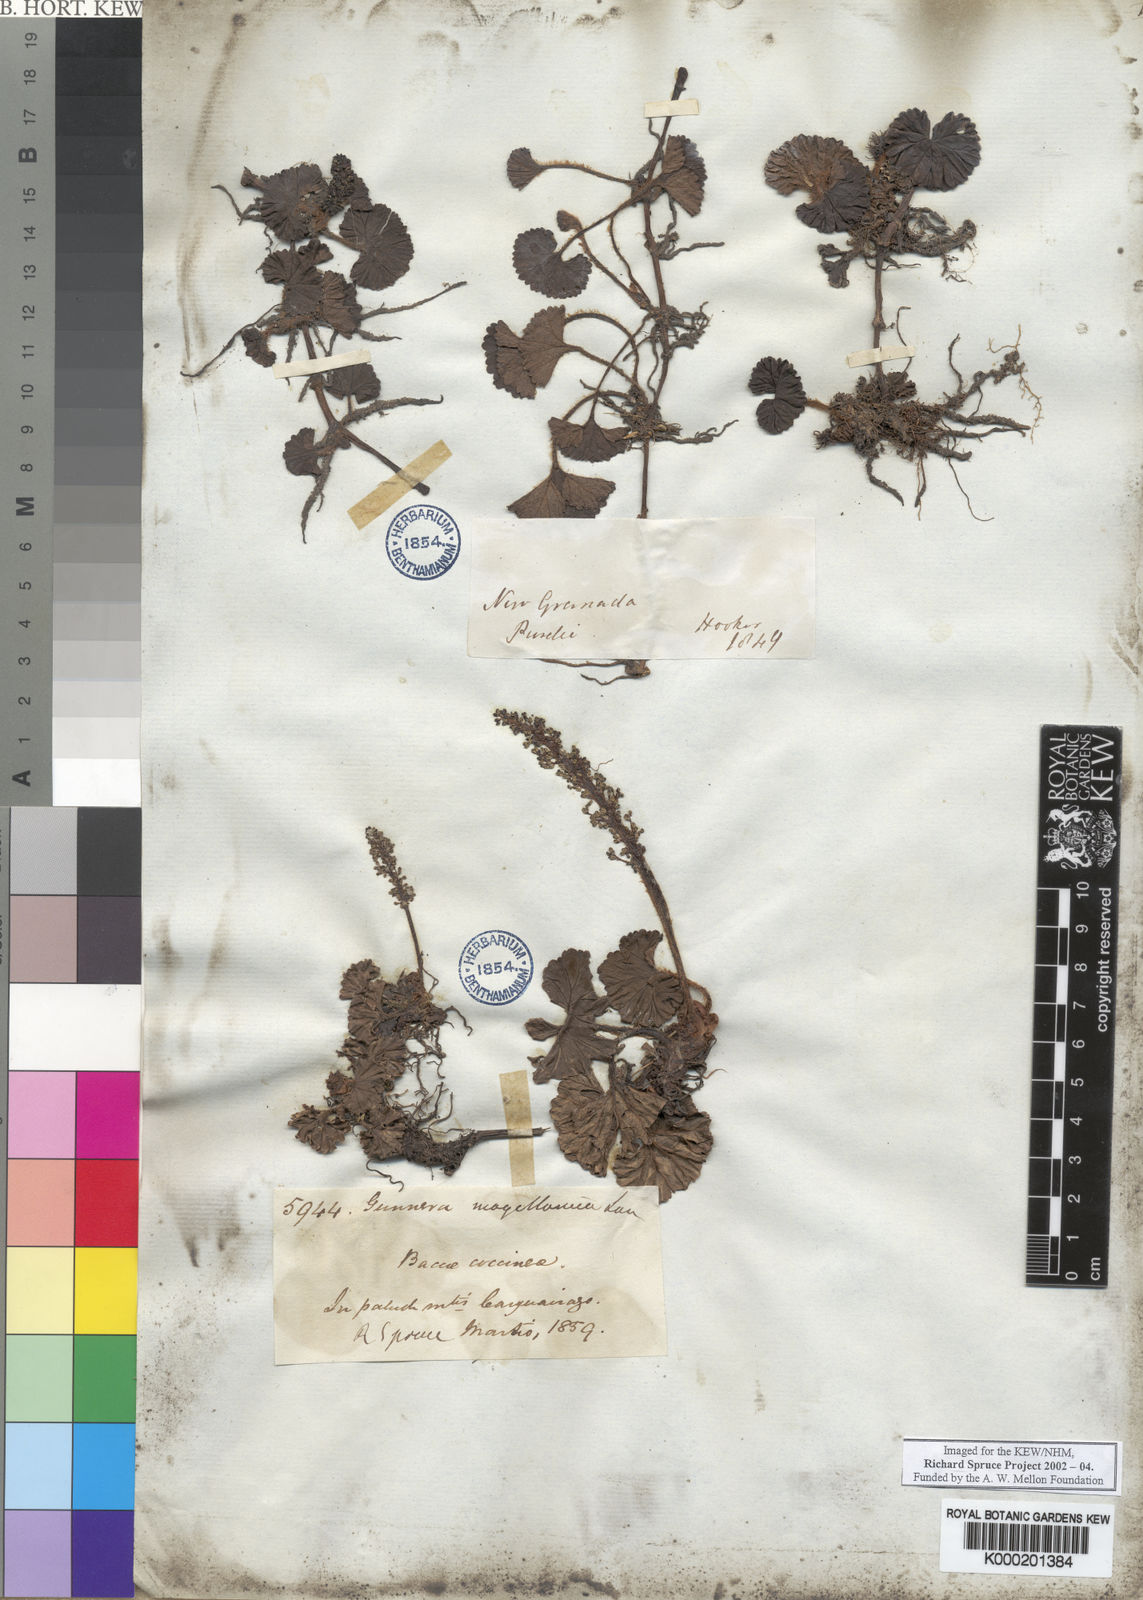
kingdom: Plantae
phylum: Tracheophyta
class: Magnoliopsida
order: Gunnerales
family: Gunneraceae
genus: Gunnera
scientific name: Gunnera magellanica
